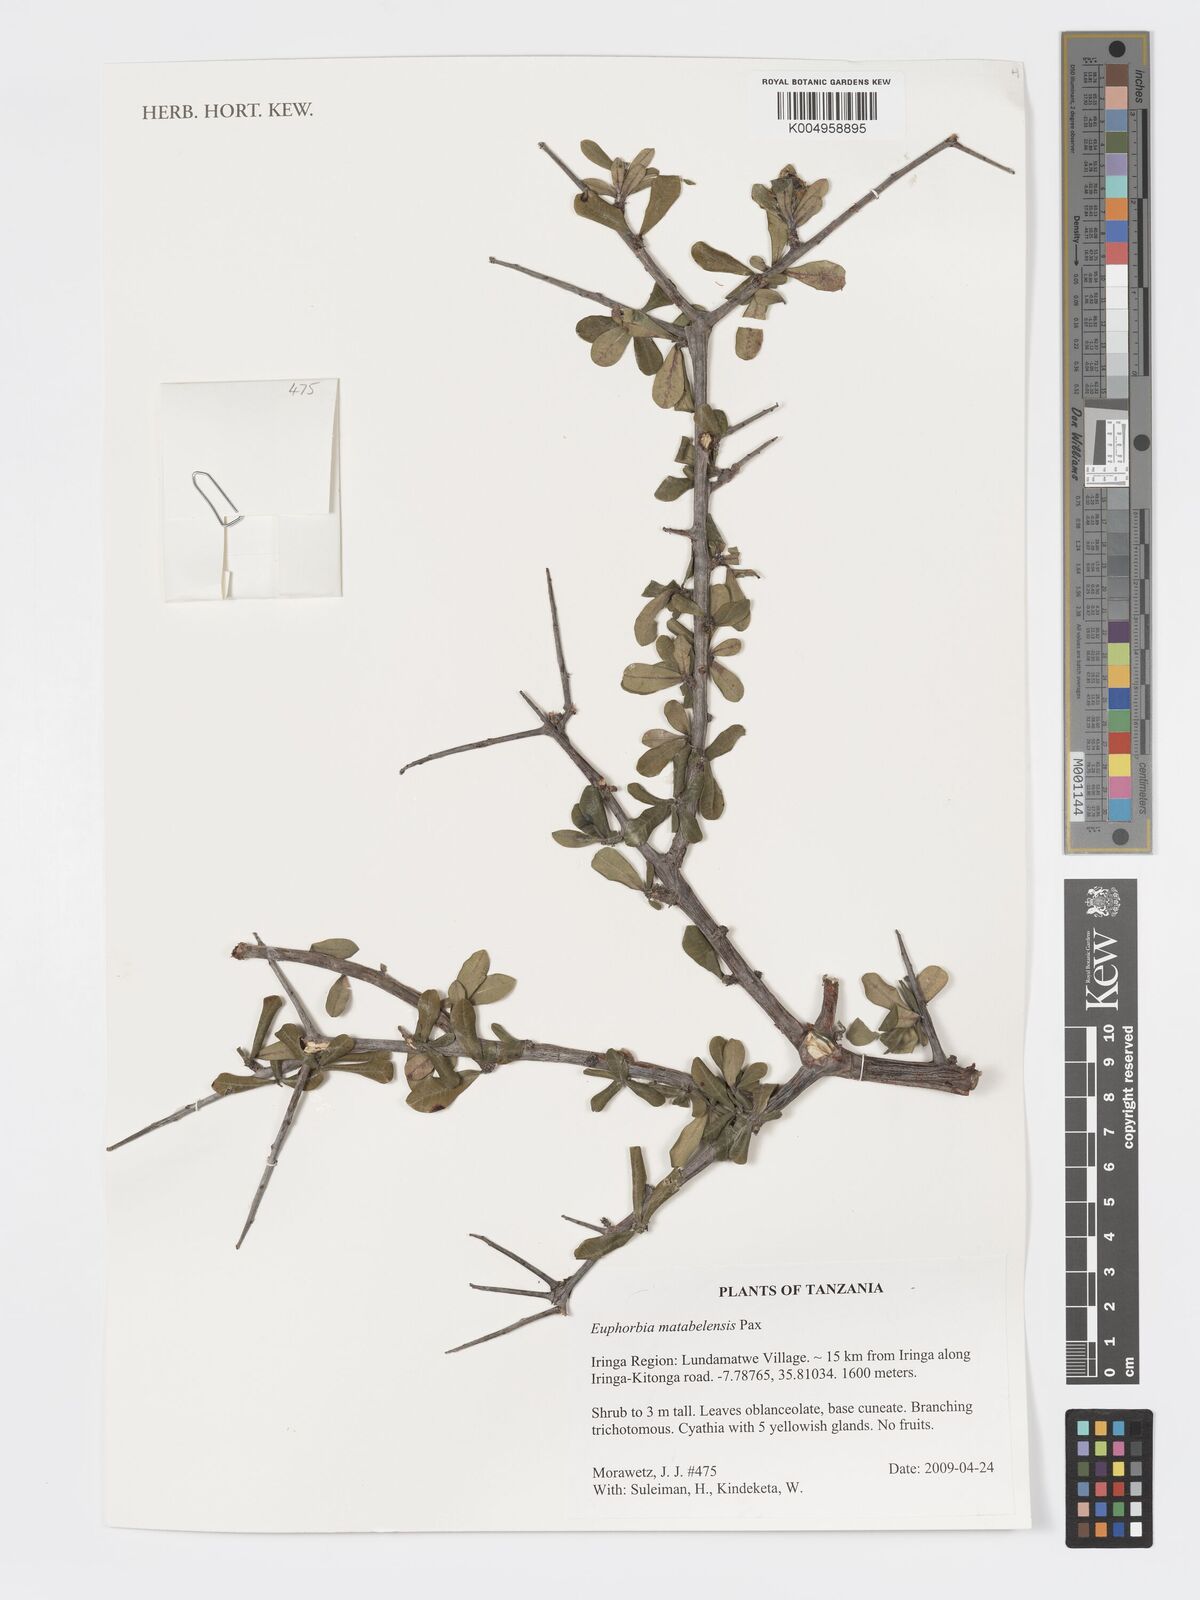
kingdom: Plantae
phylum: Tracheophyta
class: Magnoliopsida
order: Malpighiales
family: Euphorbiaceae
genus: Euphorbia
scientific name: Euphorbia matabelensis
